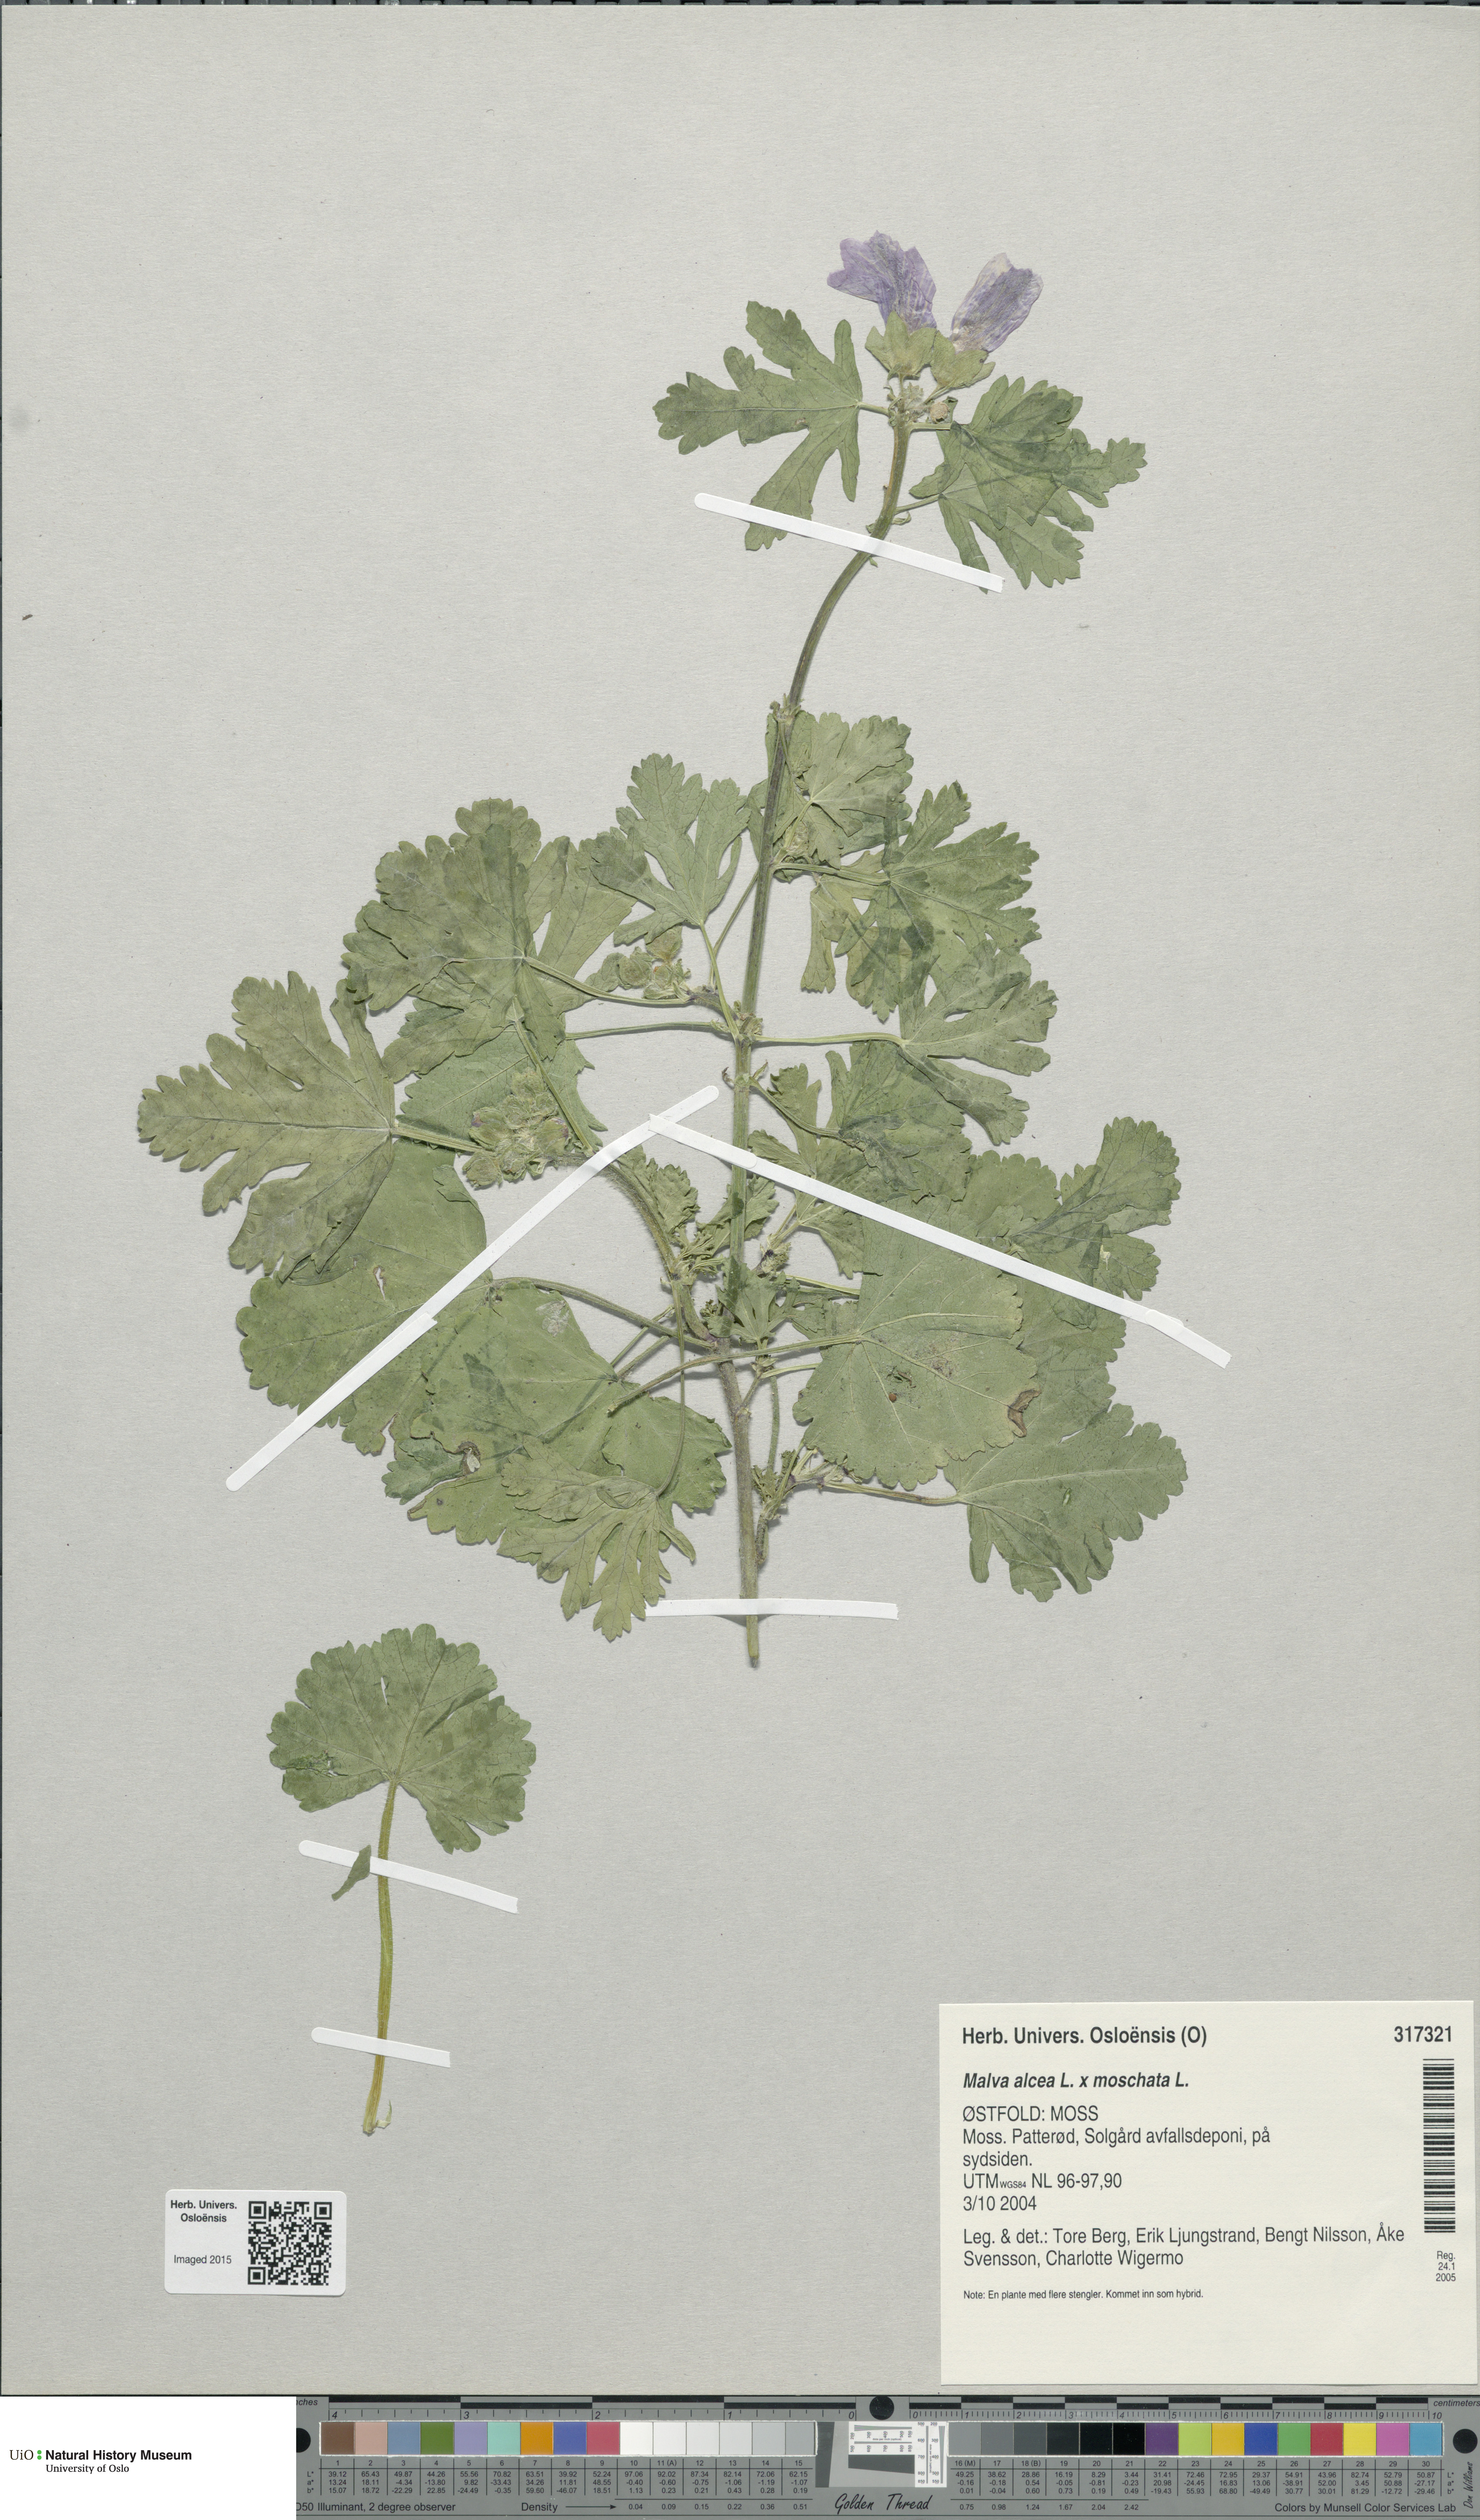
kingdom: Plantae
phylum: Tracheophyta
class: Magnoliopsida
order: Malvales
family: Malvaceae
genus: Malva
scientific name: Malva
